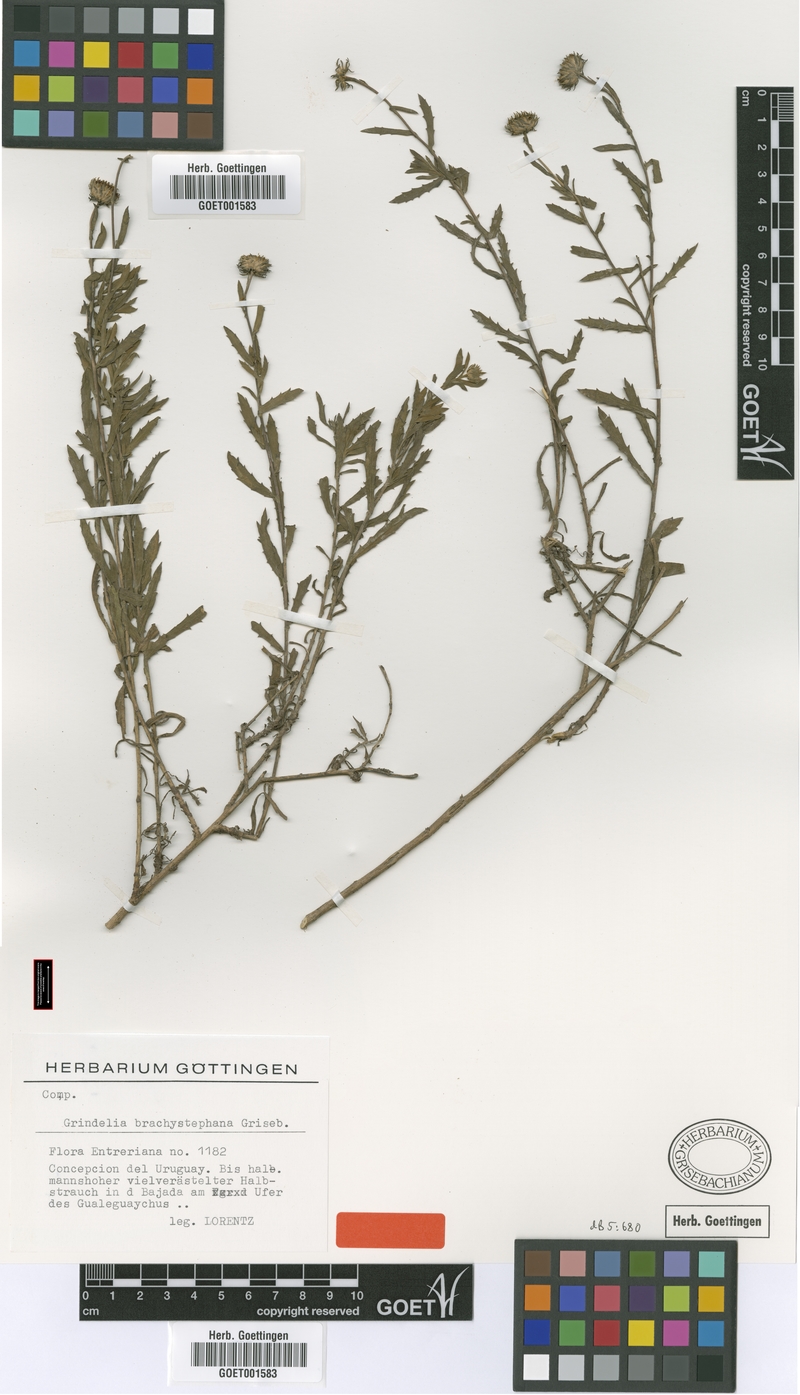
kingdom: Plantae
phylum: Tracheophyta
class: Magnoliopsida
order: Asterales
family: Asteraceae
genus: Grindelia
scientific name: Grindelia brachystephana
